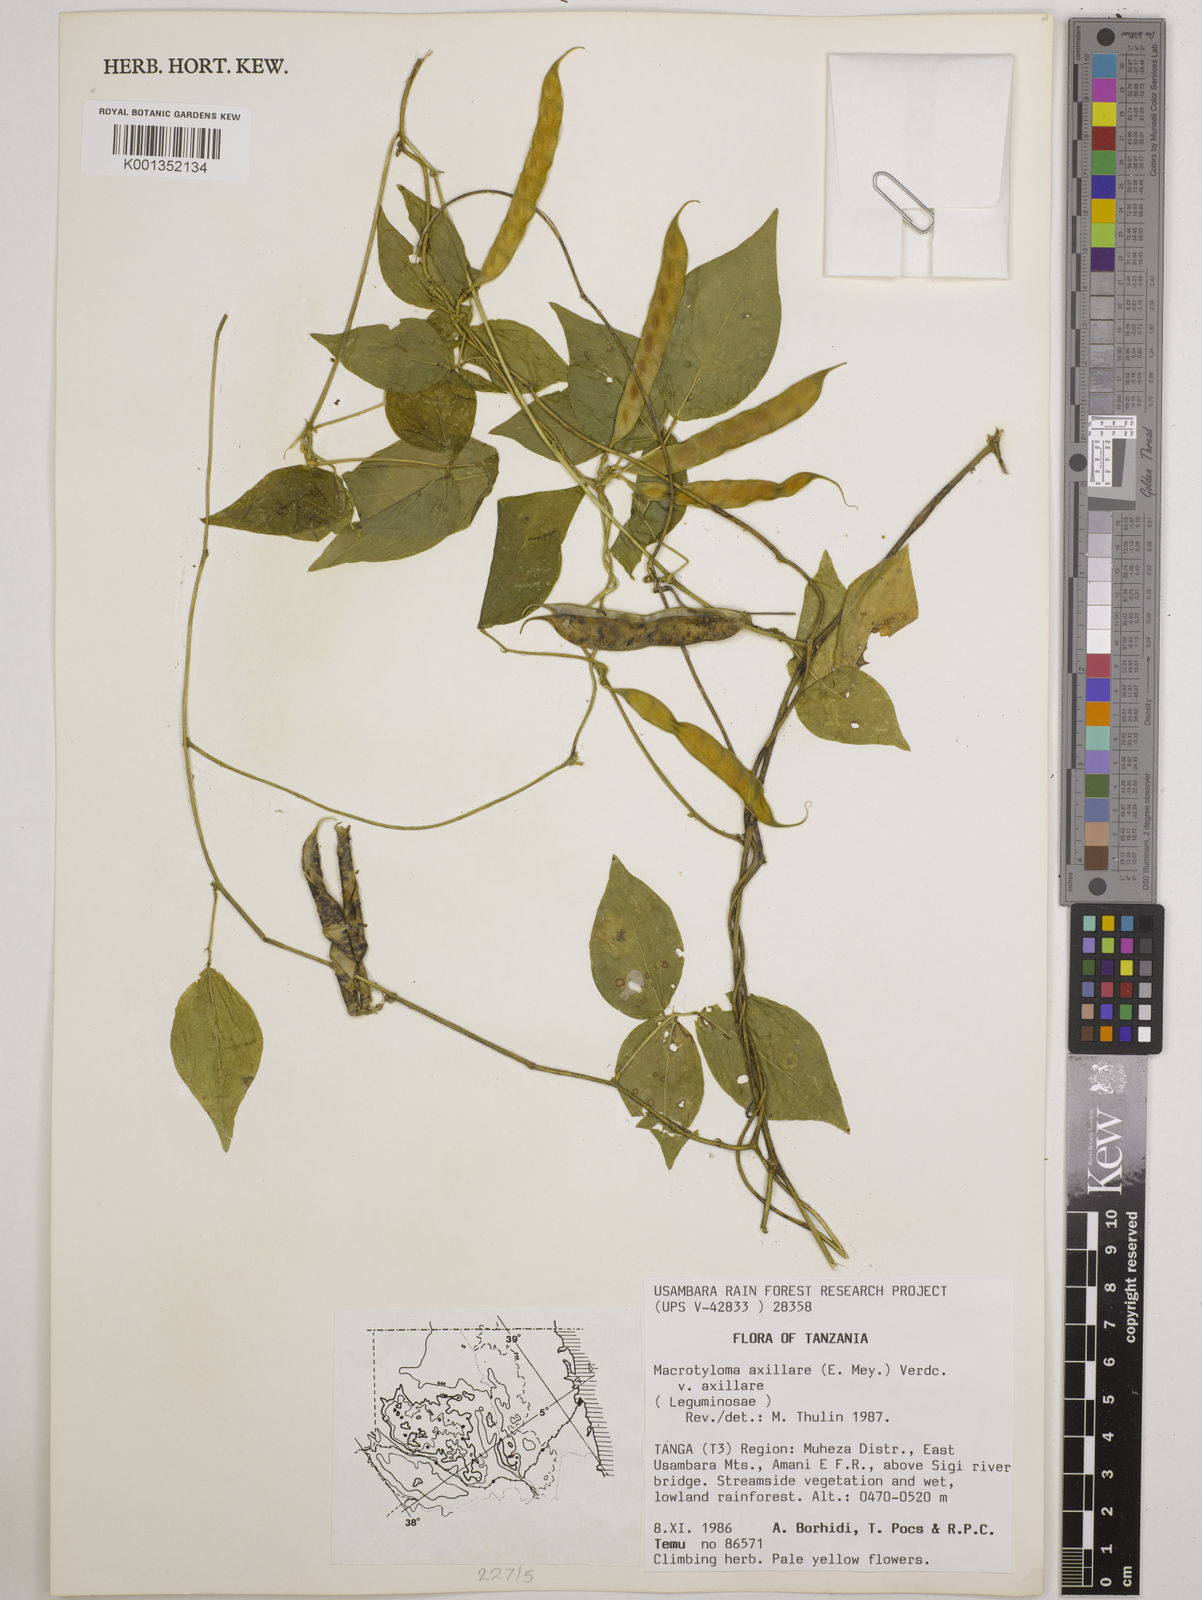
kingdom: Plantae
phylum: Tracheophyta
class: Magnoliopsida
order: Fabales
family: Fabaceae
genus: Macrotyloma
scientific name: Macrotyloma axillare
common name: Perennial horsegram
